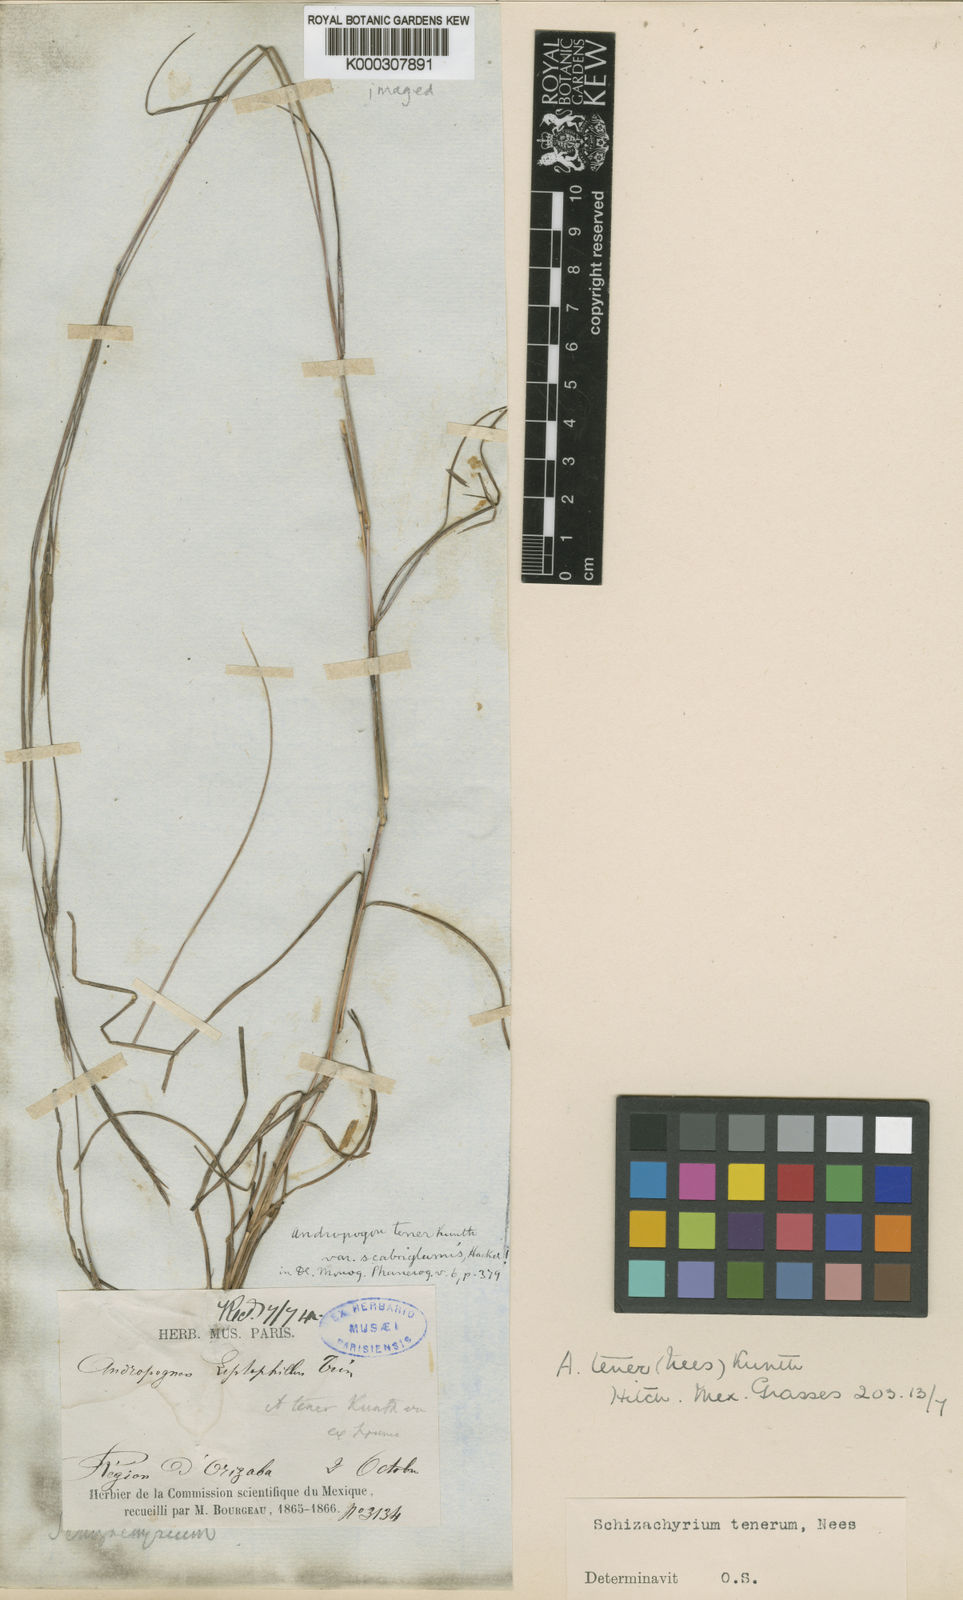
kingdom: Plantae
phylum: Tracheophyta
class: Liliopsida
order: Poales
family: Poaceae
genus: Andropogon
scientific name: Andropogon tener
